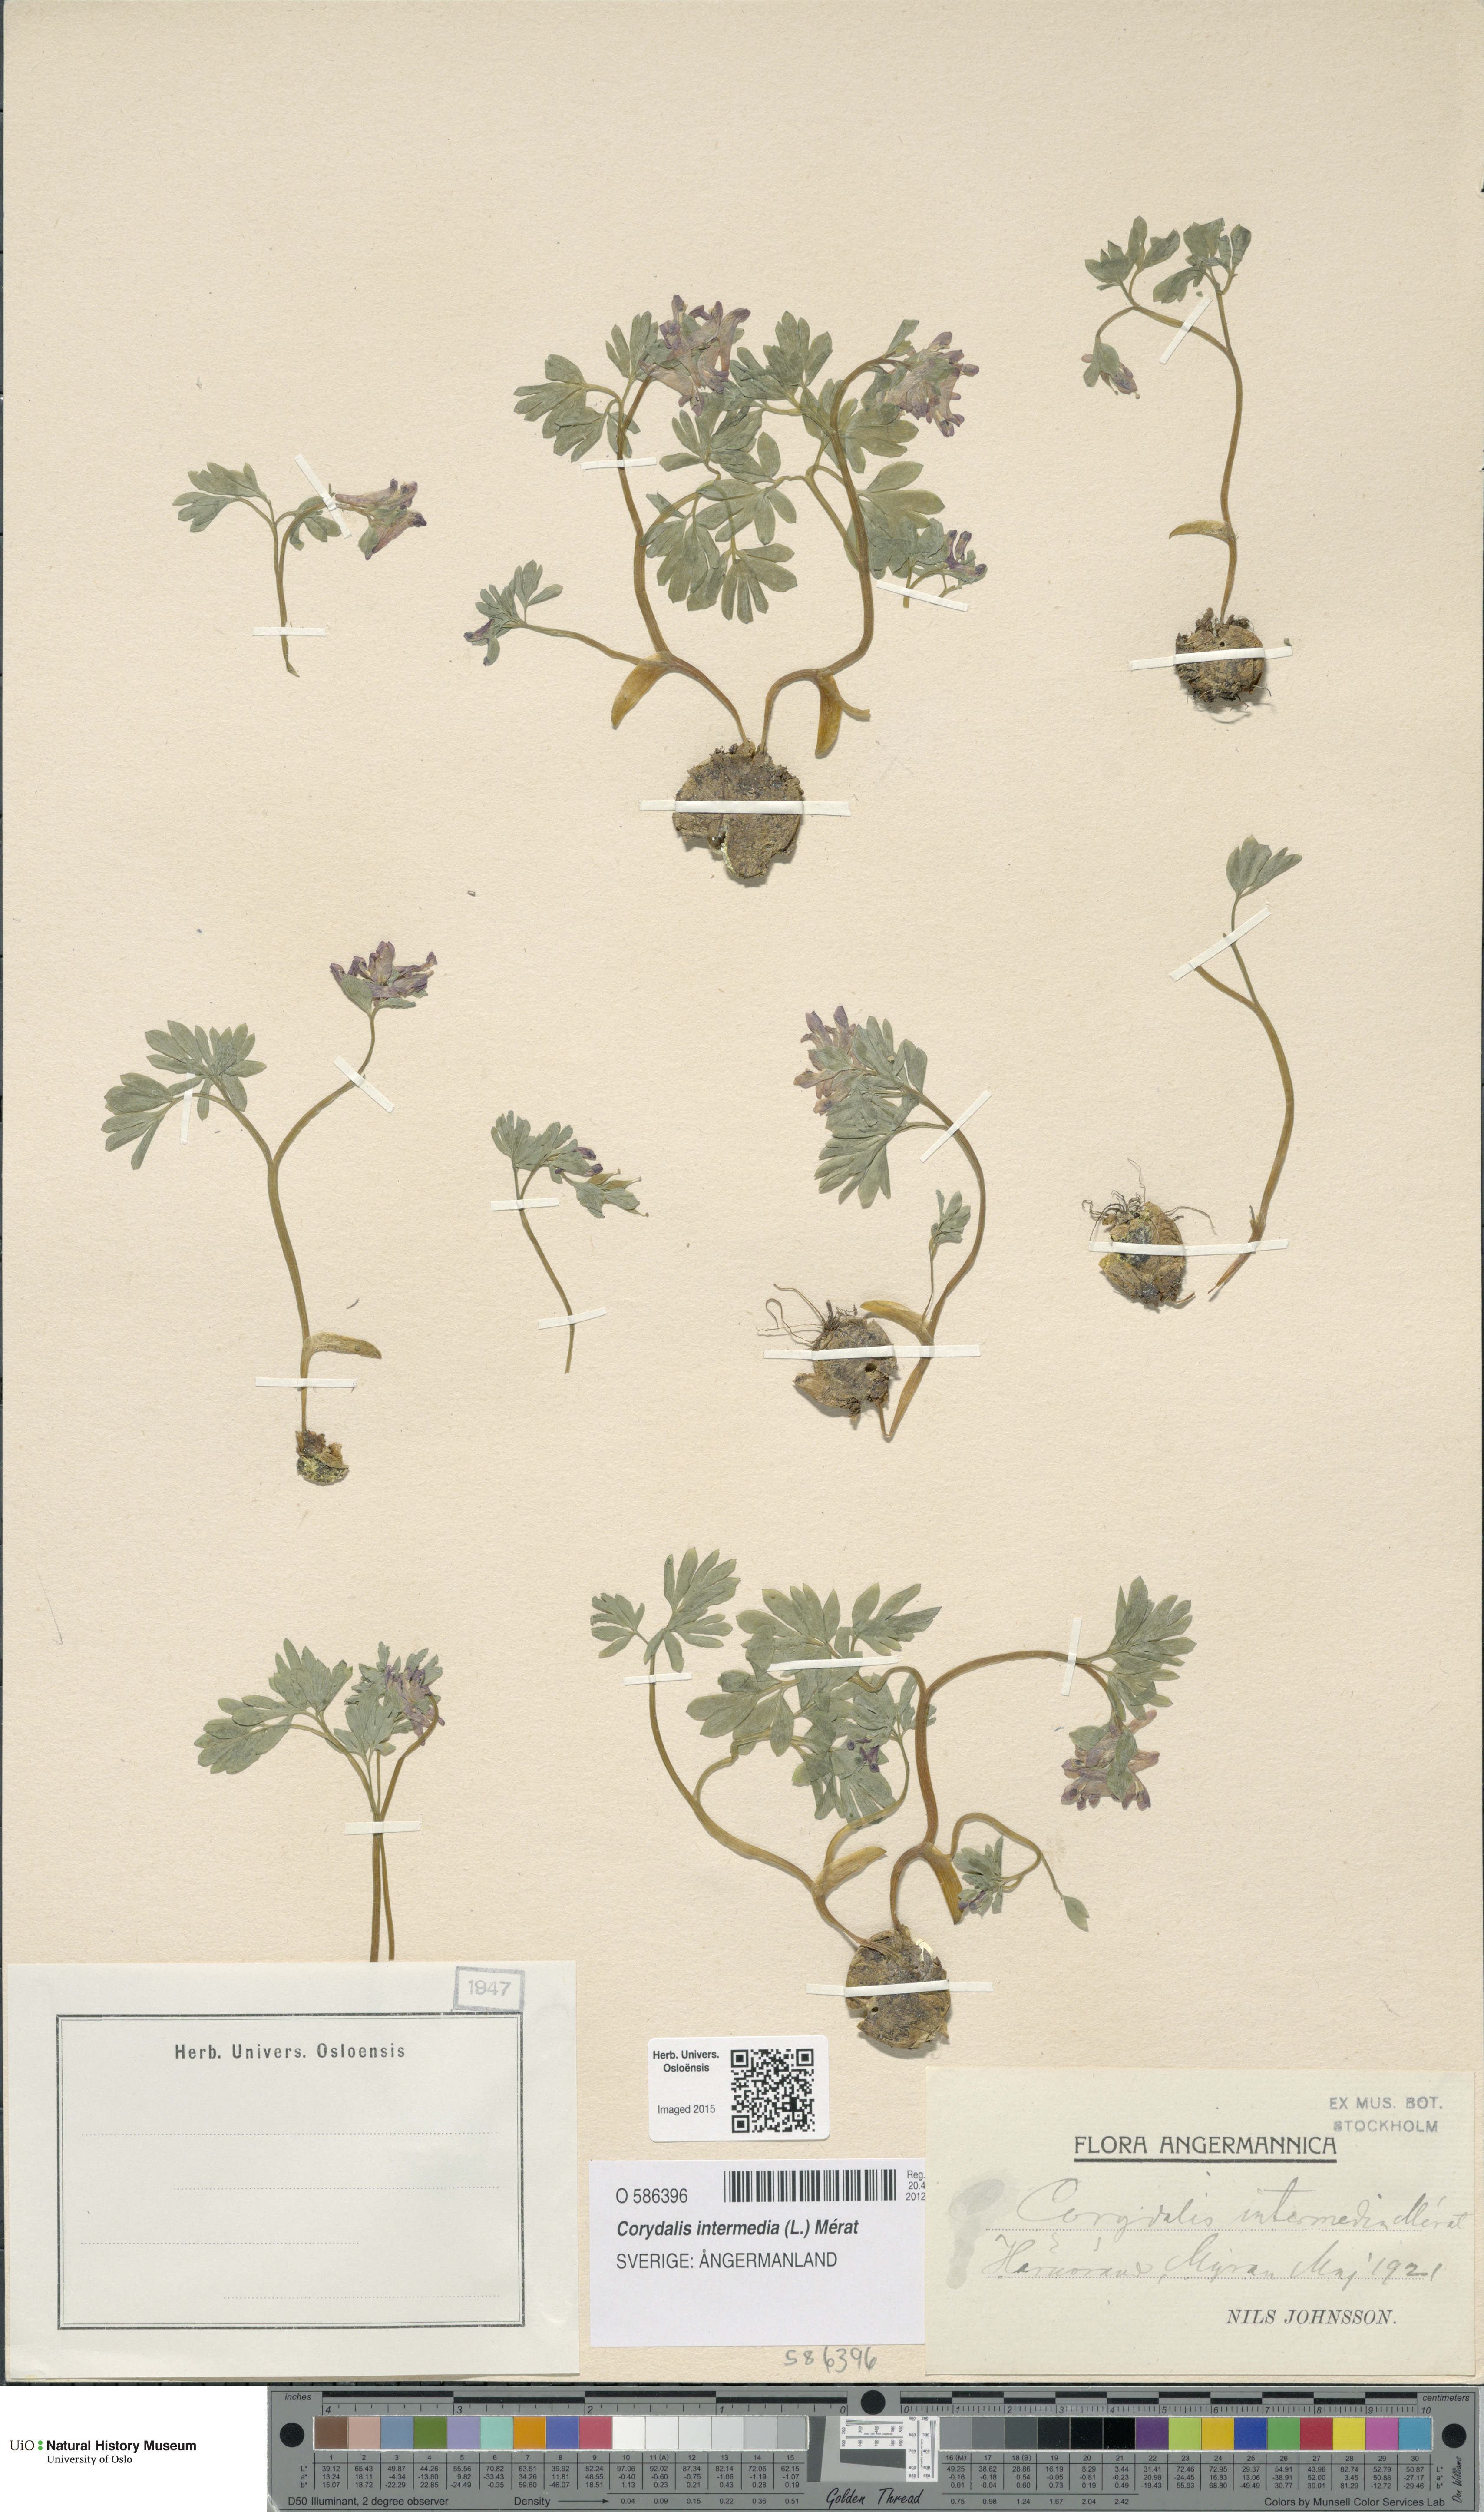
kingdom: Plantae
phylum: Tracheophyta
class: Magnoliopsida
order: Ranunculales
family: Papaveraceae
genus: Corydalis
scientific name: Corydalis intermedia
